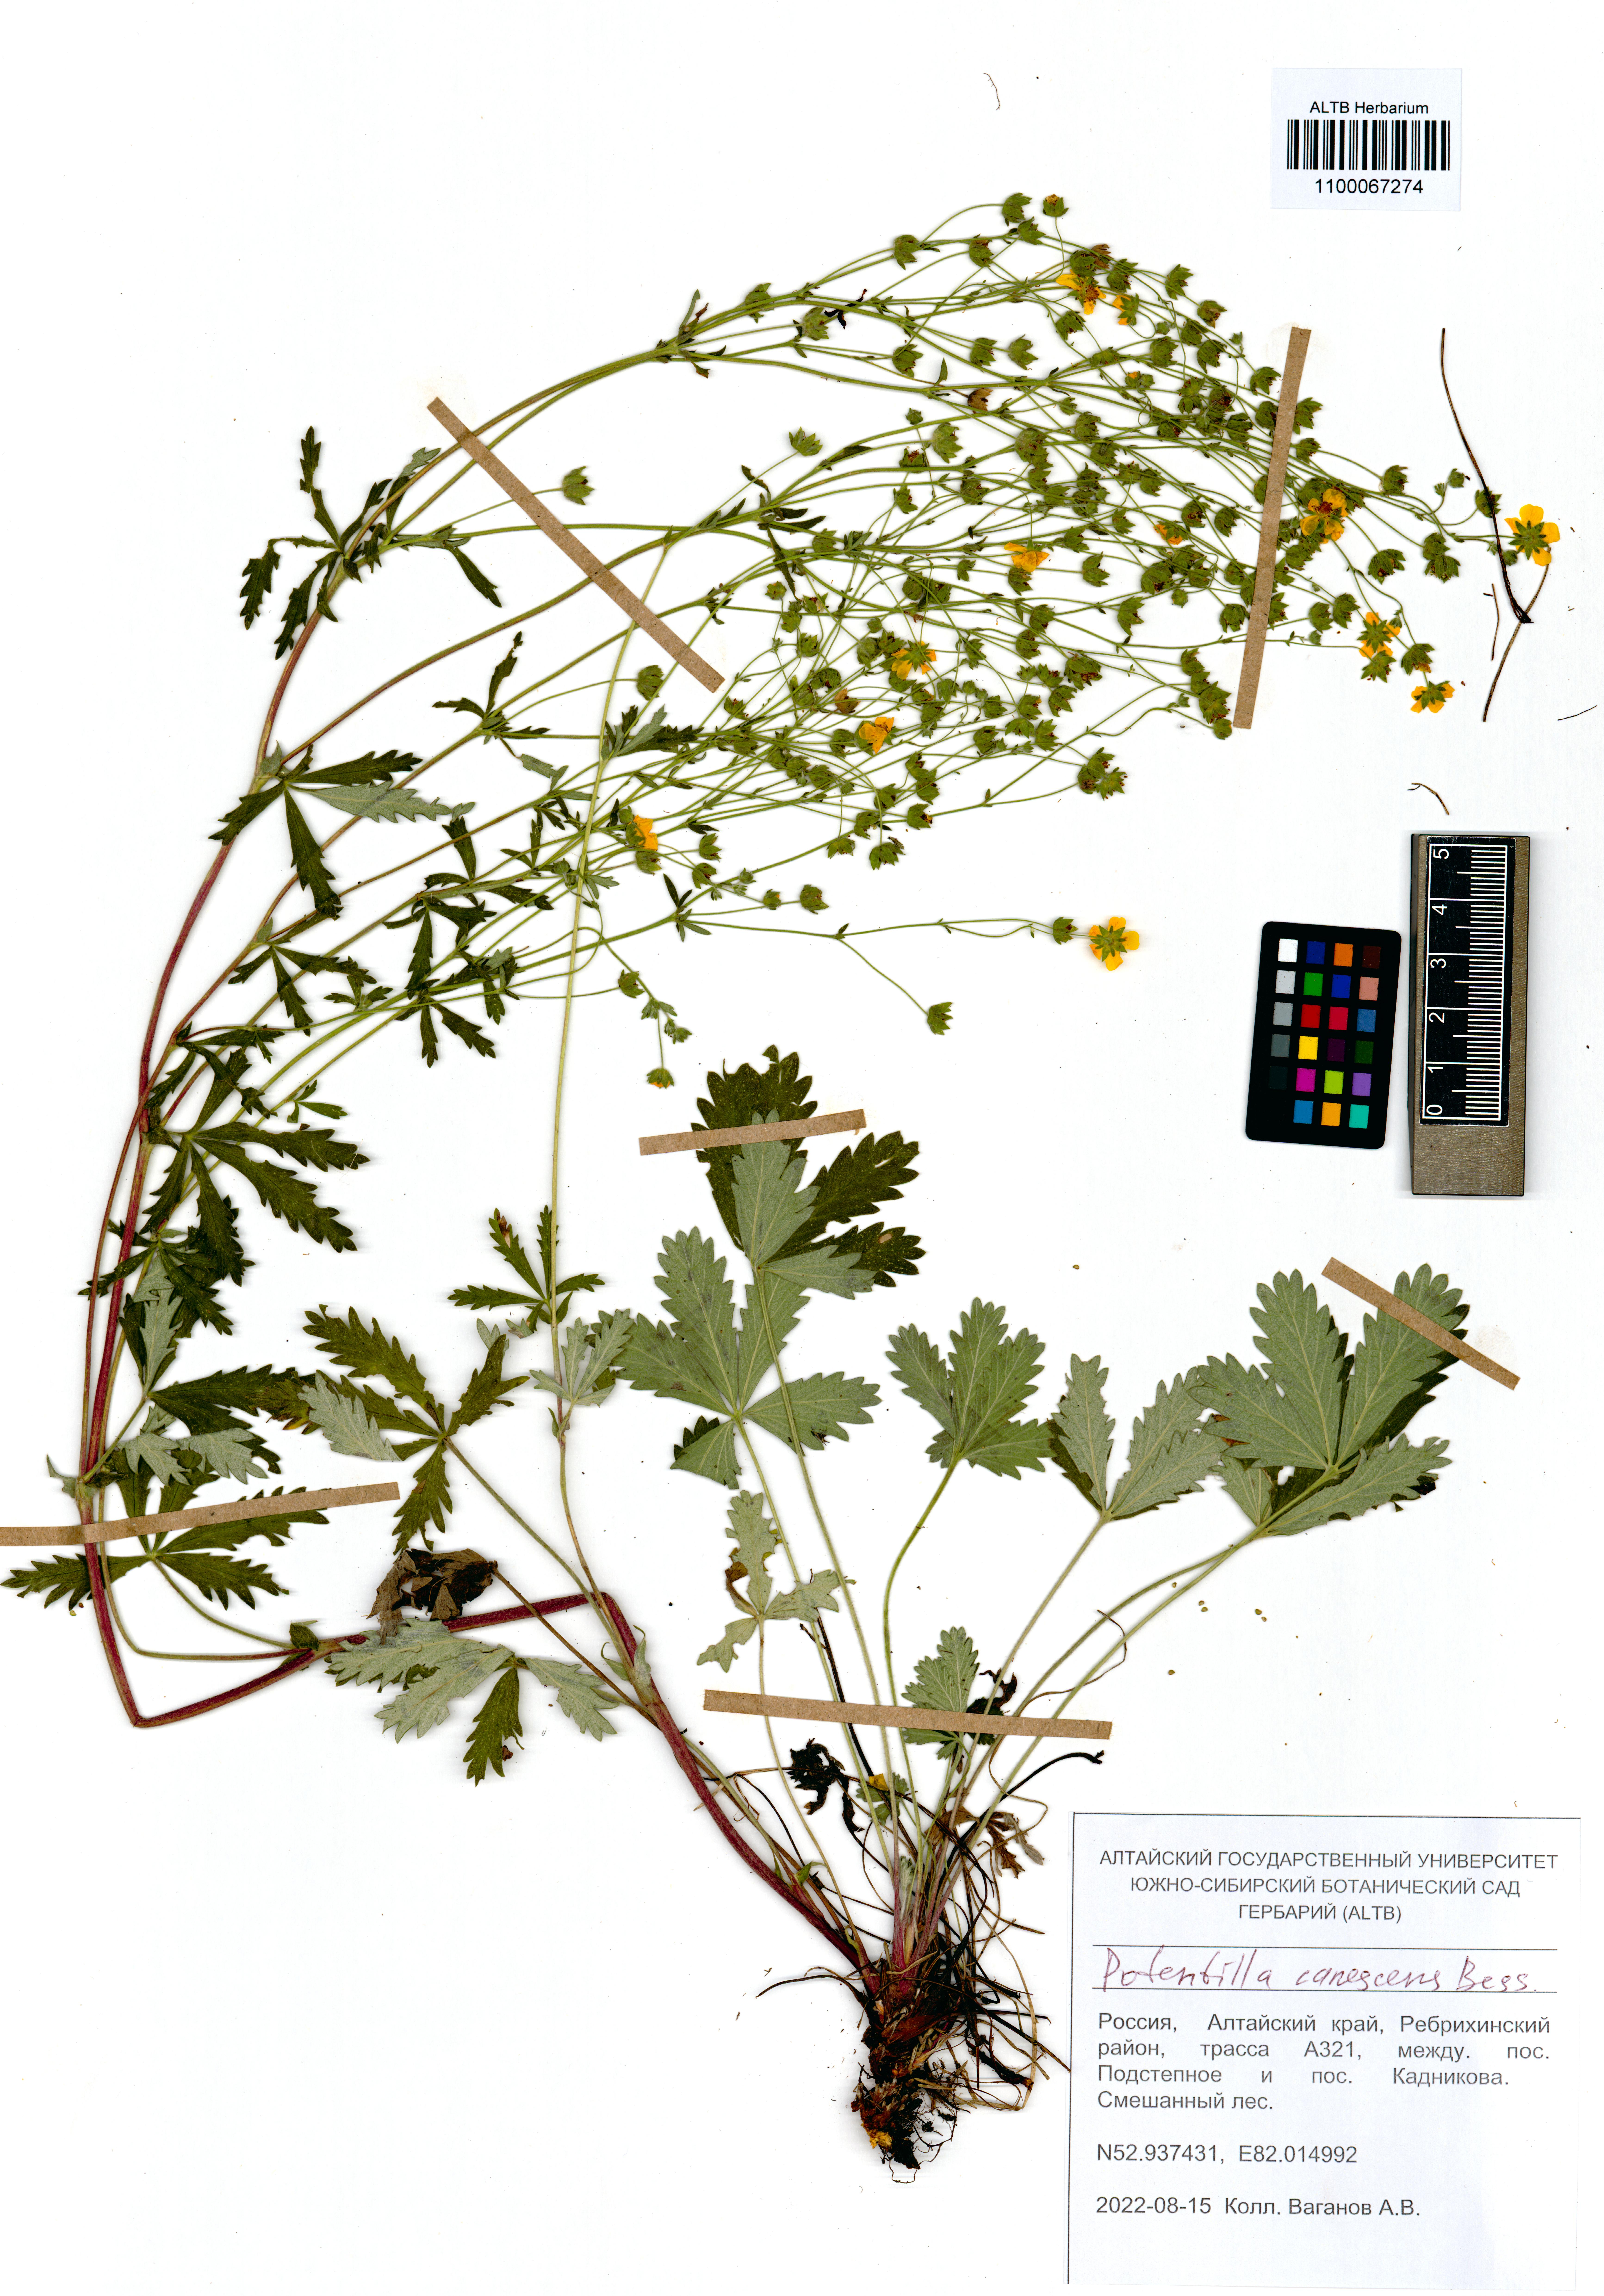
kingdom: Plantae
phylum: Tracheophyta
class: Magnoliopsida
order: Rosales
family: Rosaceae
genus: Potentilla
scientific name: Potentilla inclinata
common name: Grey cinquefoil
